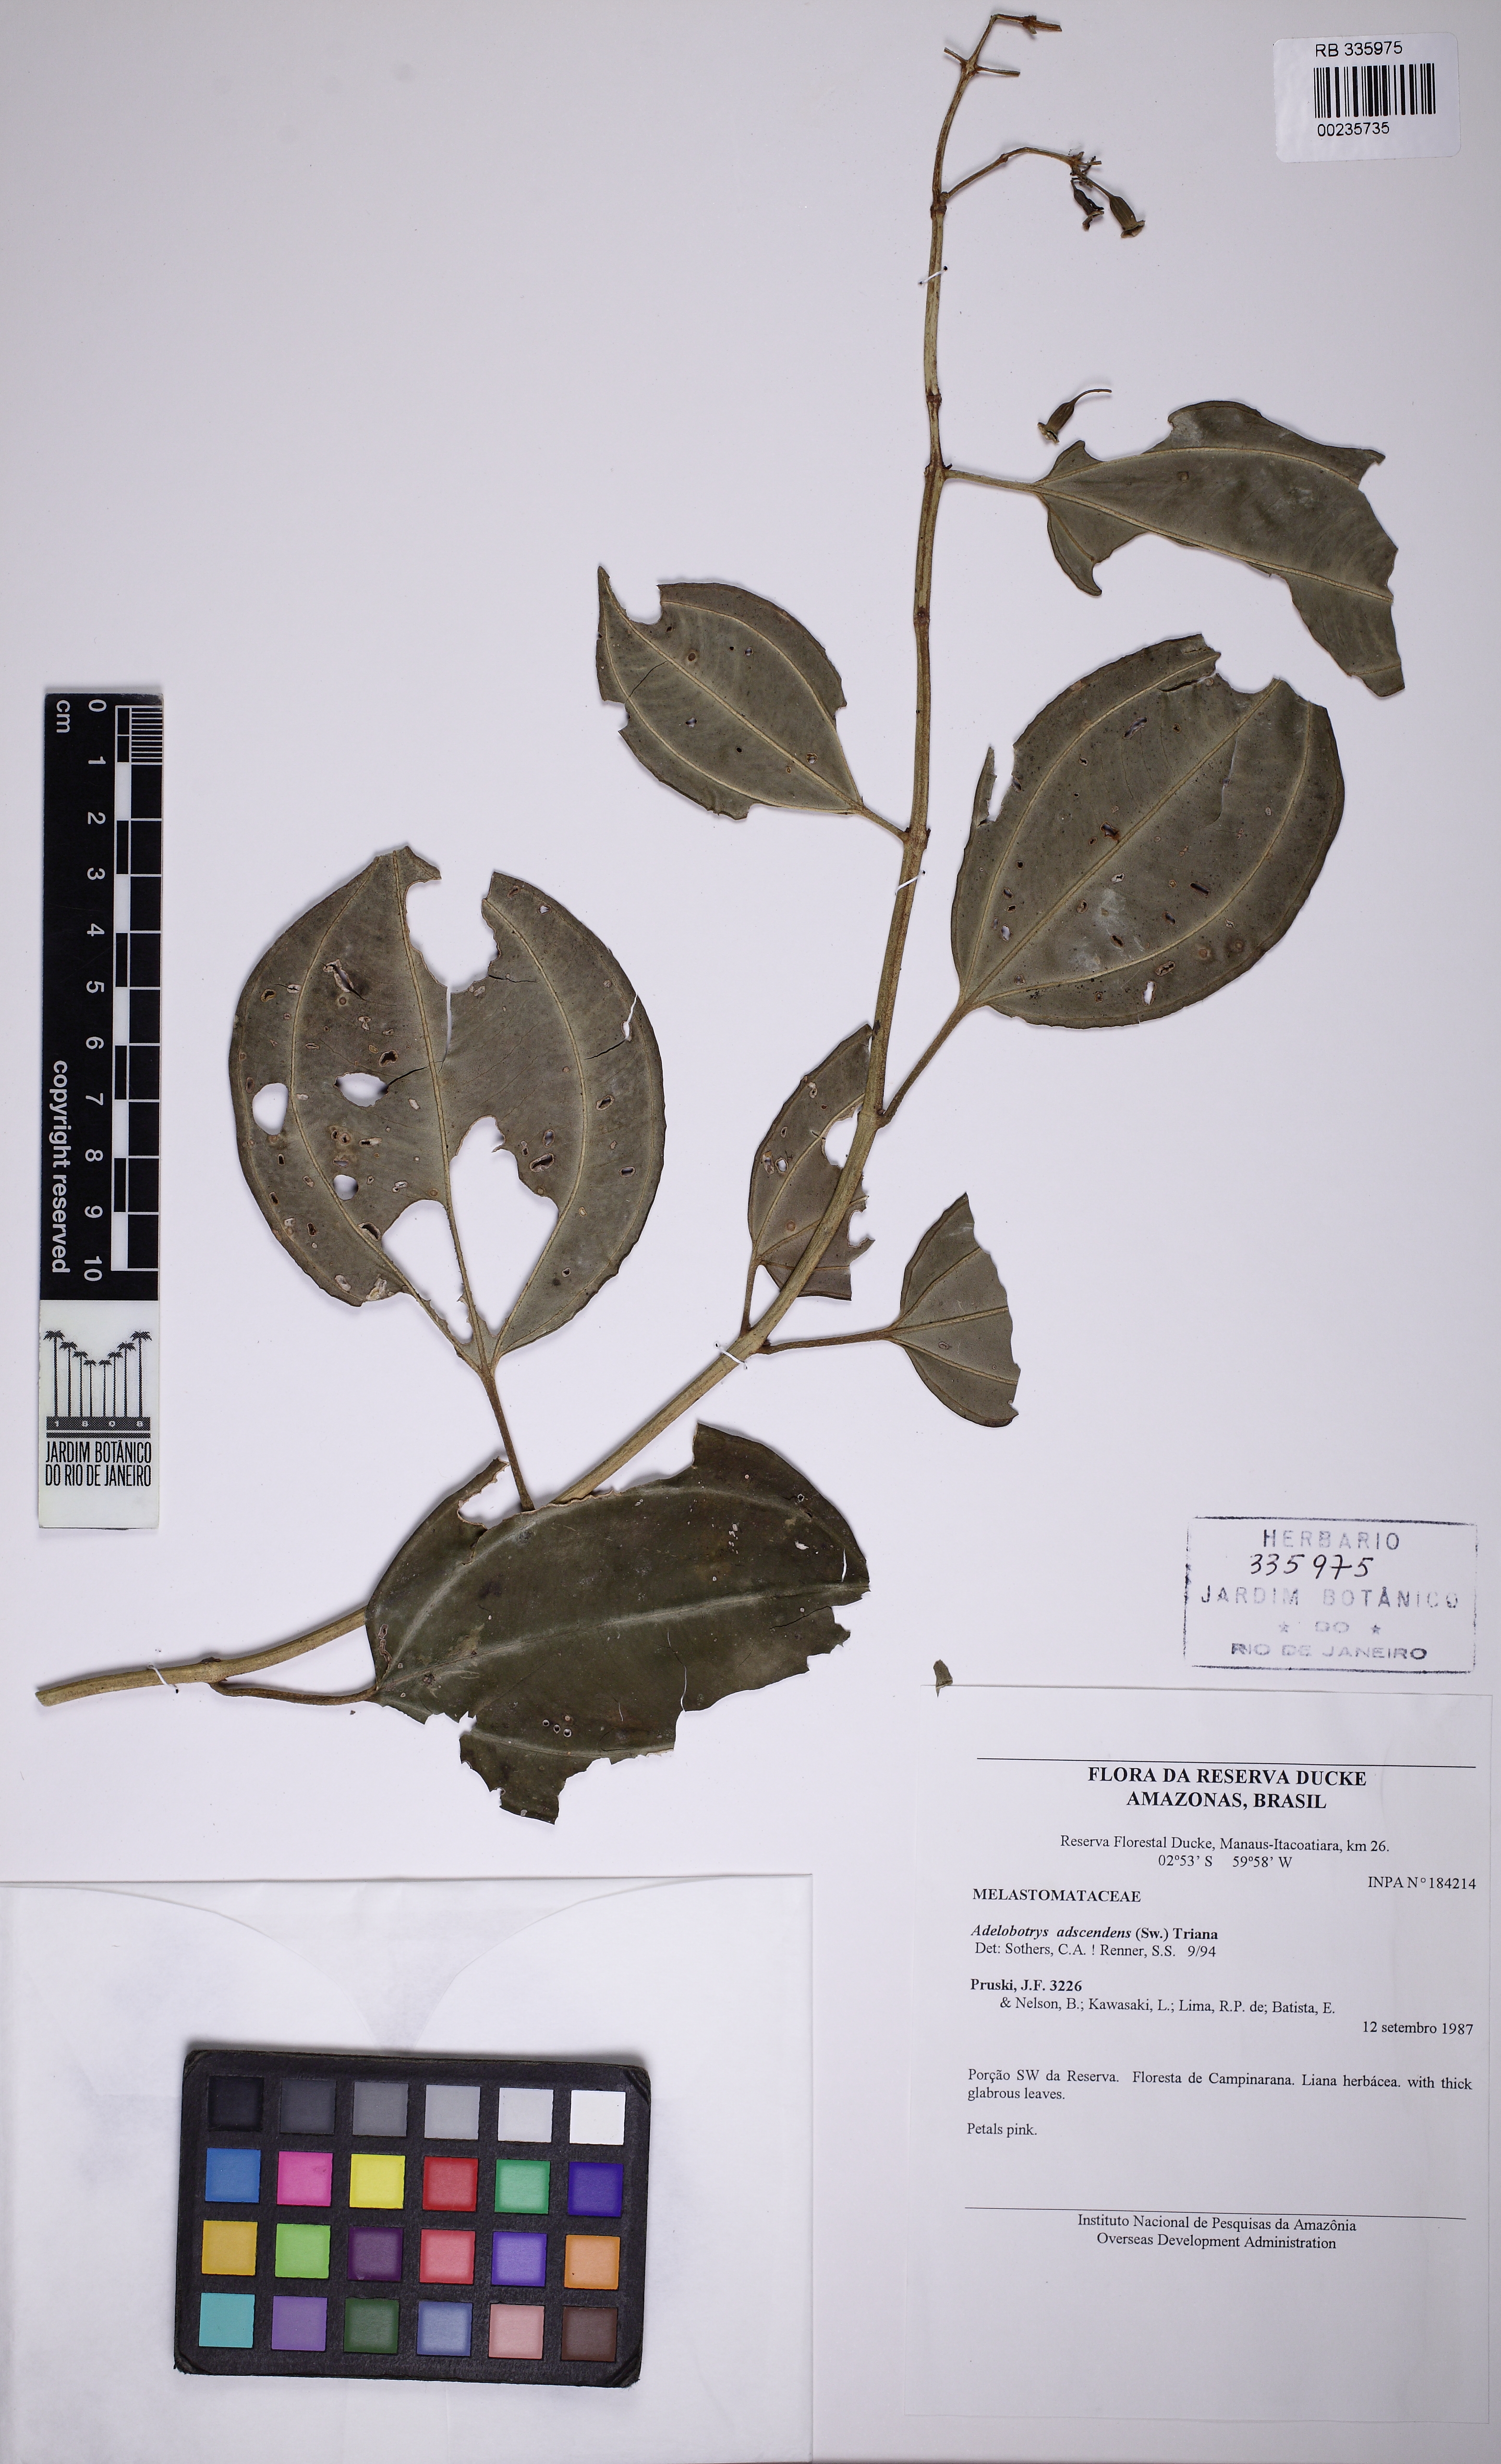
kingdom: Plantae
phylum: Tracheophyta
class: Magnoliopsida
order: Myrtales
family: Melastomataceae
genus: Adelobotrys
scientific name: Adelobotrys adscendens
